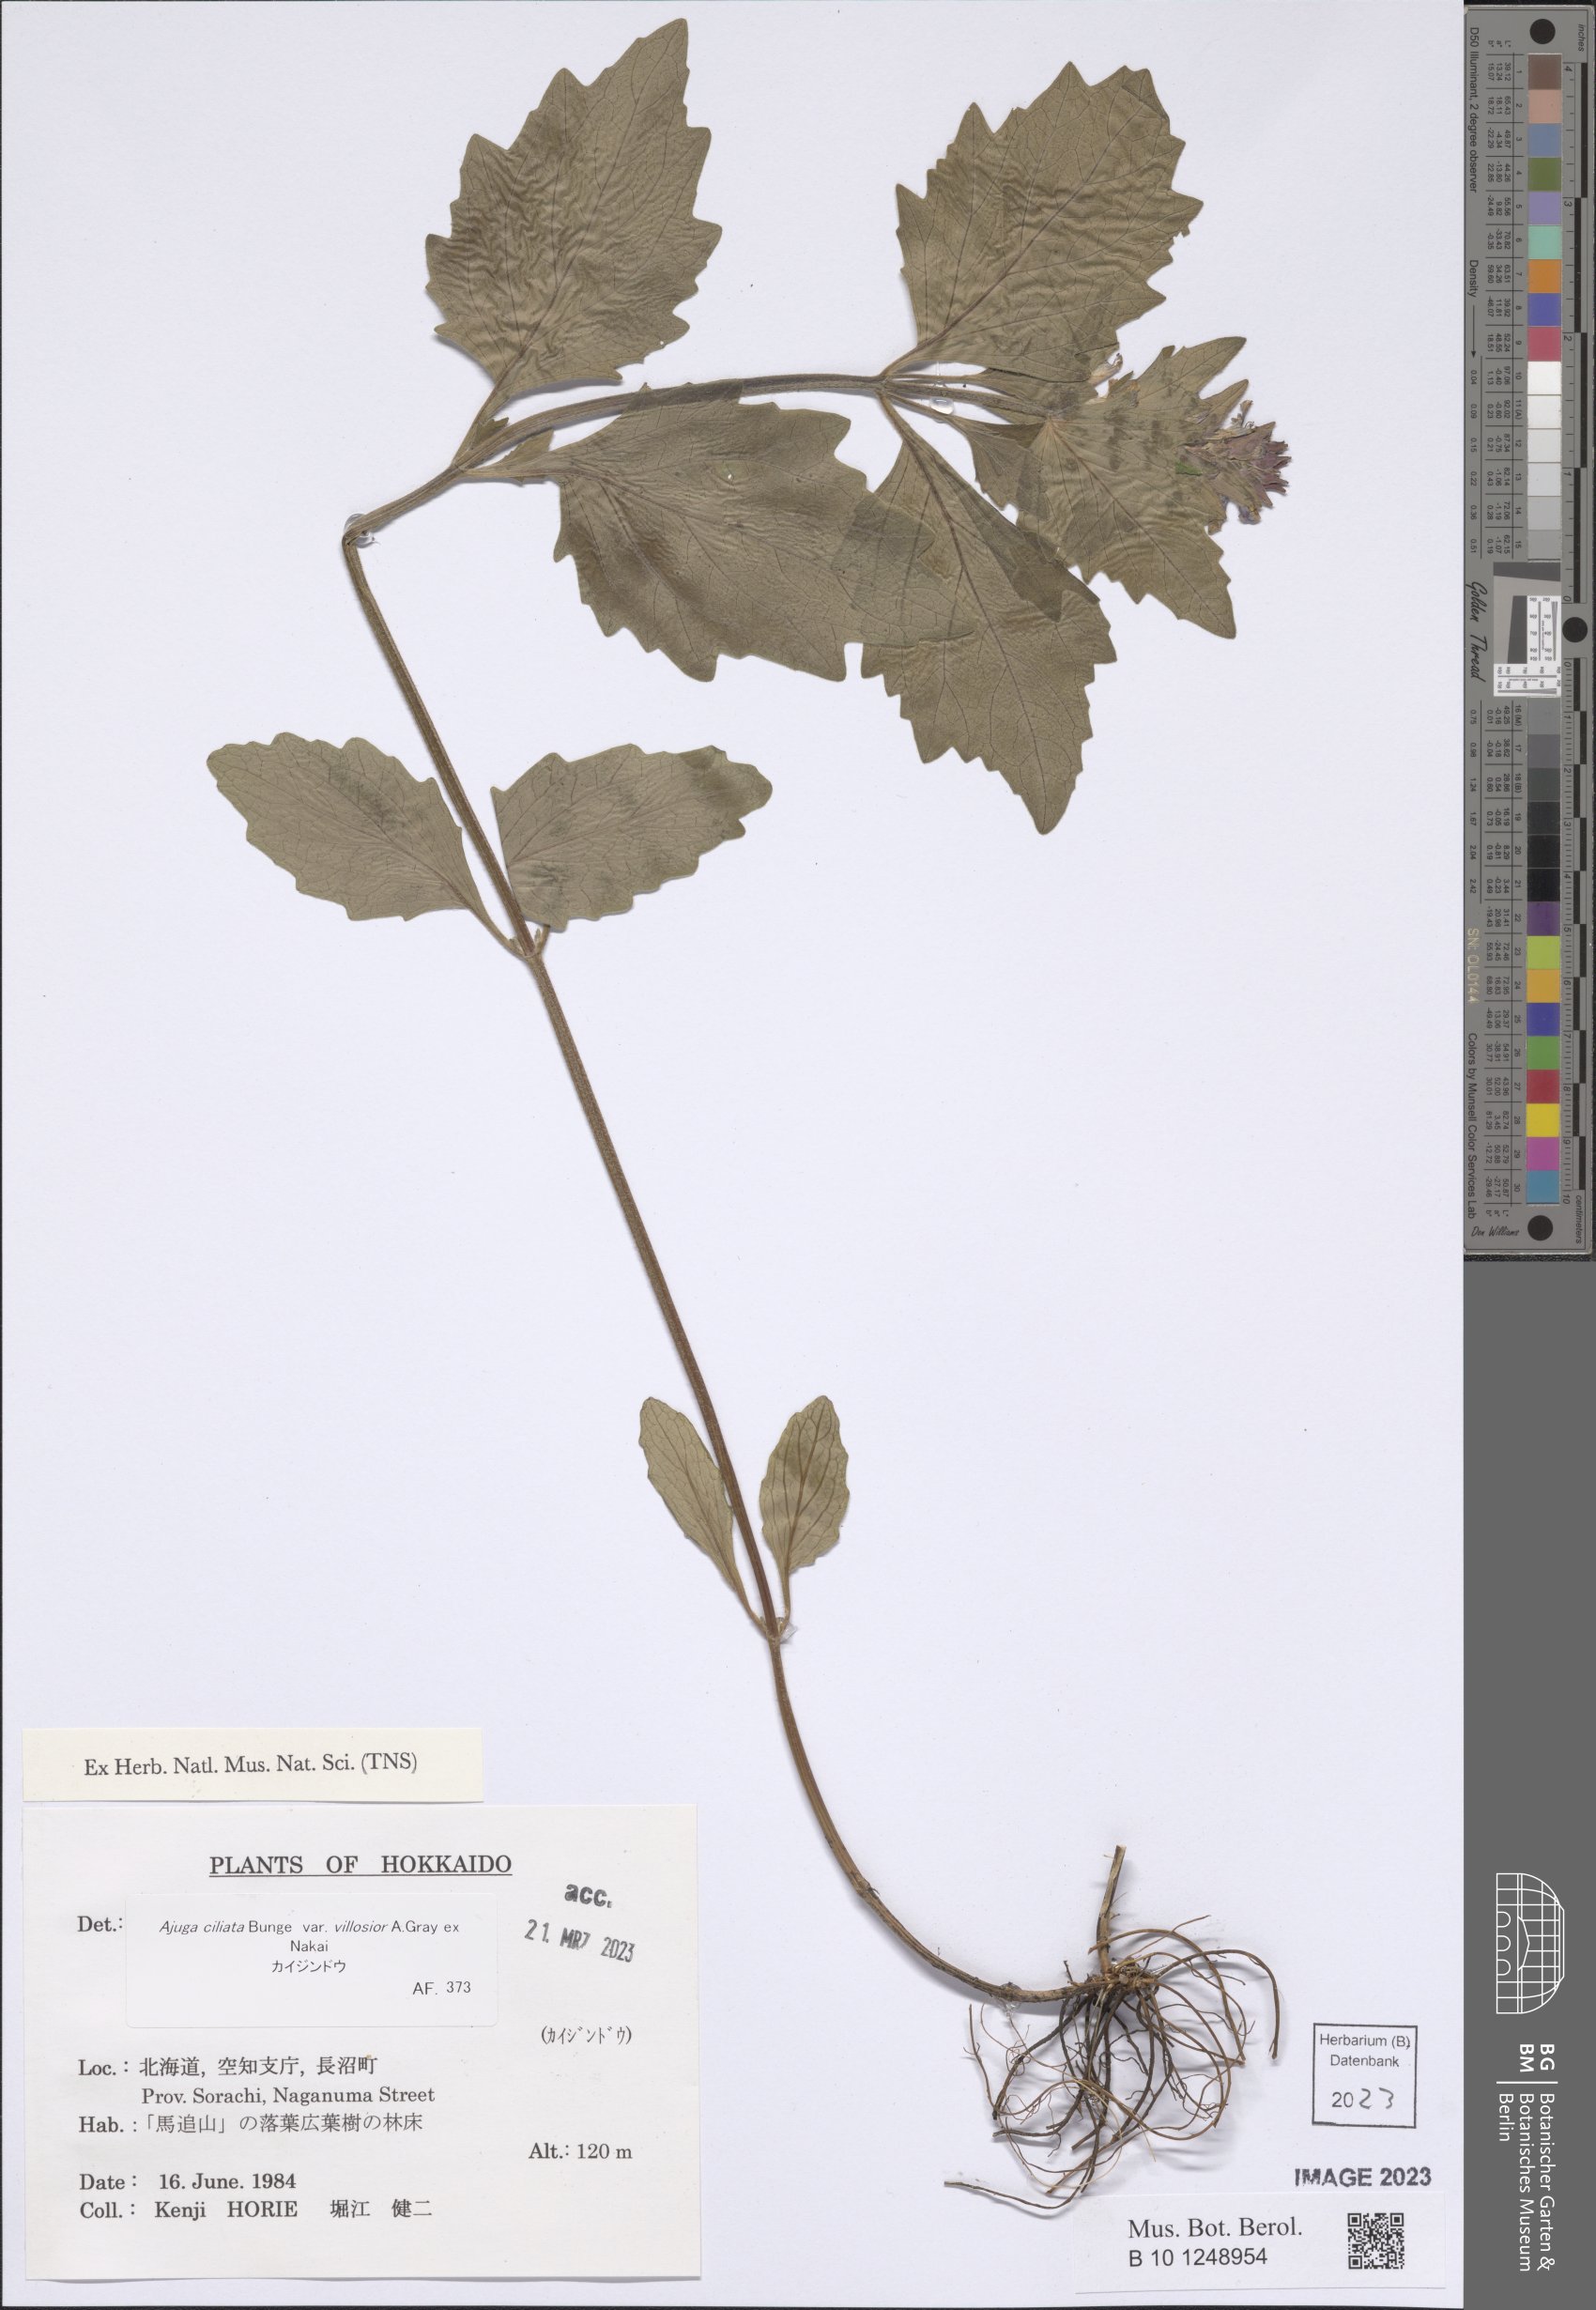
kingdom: Plantae
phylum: Tracheophyta
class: Magnoliopsida
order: Lamiales
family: Lamiaceae
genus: Ajuga
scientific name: Ajuga ciliata
